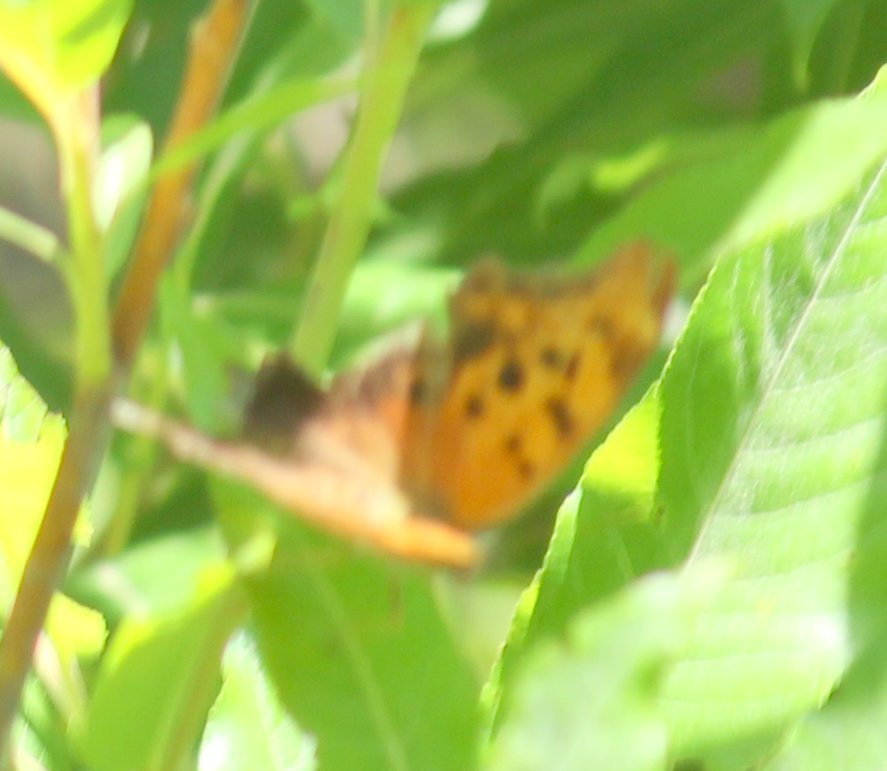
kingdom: Animalia
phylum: Arthropoda
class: Insecta
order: Lepidoptera
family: Nymphalidae
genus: Polygonia
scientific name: Polygonia interrogationis
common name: Question Mark
